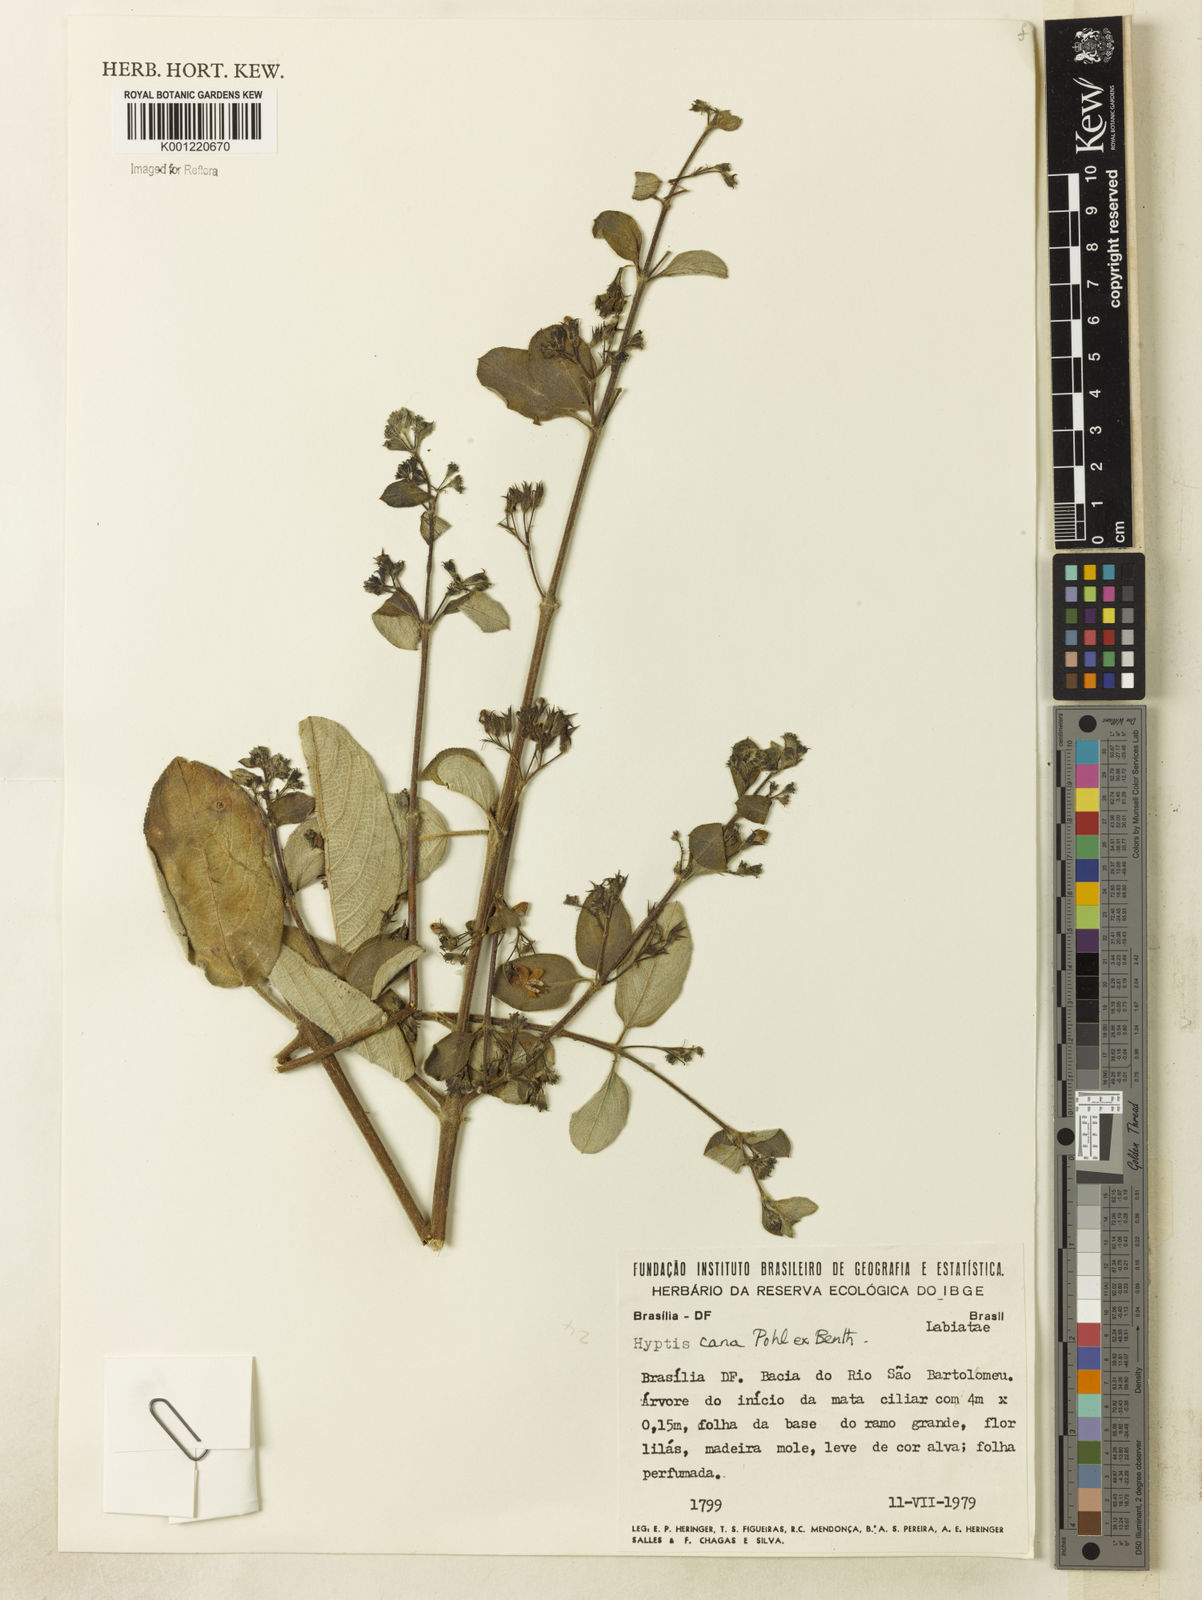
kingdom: Plantae
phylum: Tracheophyta
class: Magnoliopsida
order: Lamiales
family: Lamiaceae
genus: Hyptidendron
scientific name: Hyptidendron canum
